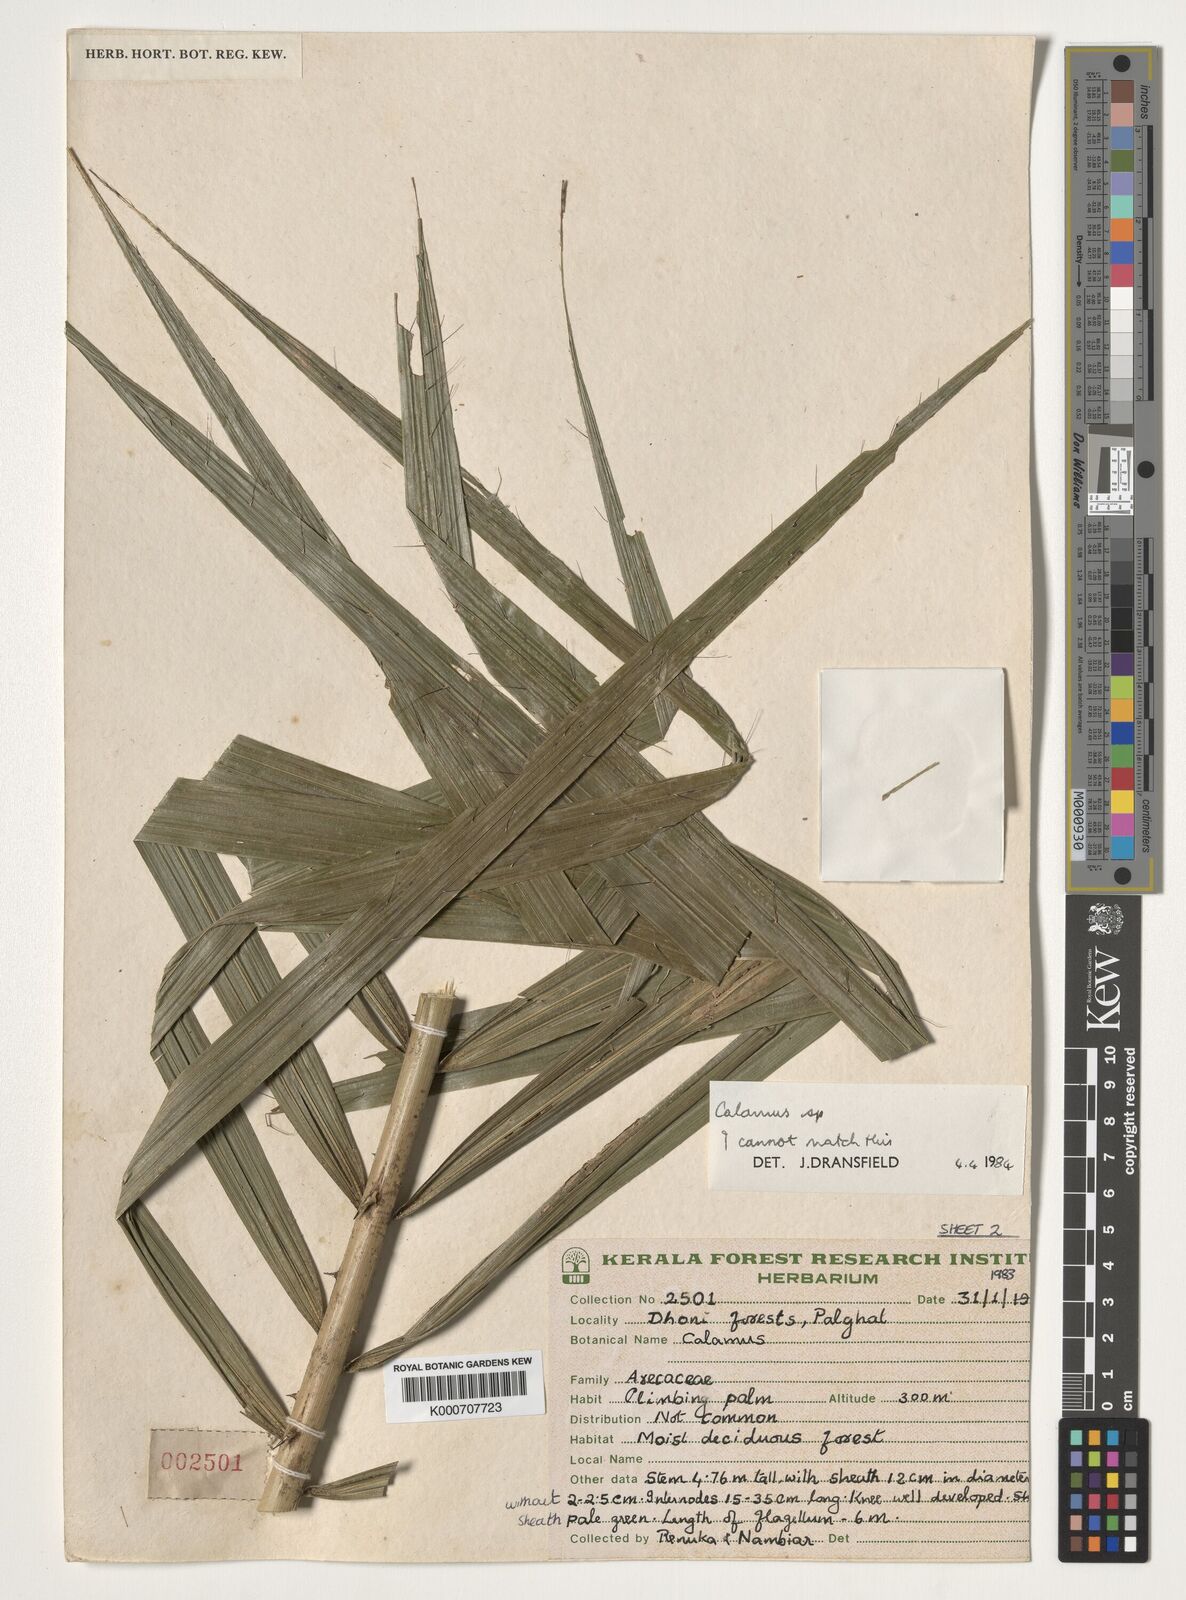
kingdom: Plantae
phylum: Tracheophyta
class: Liliopsida
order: Arecales
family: Arecaceae
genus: Calamus
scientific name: Calamus
